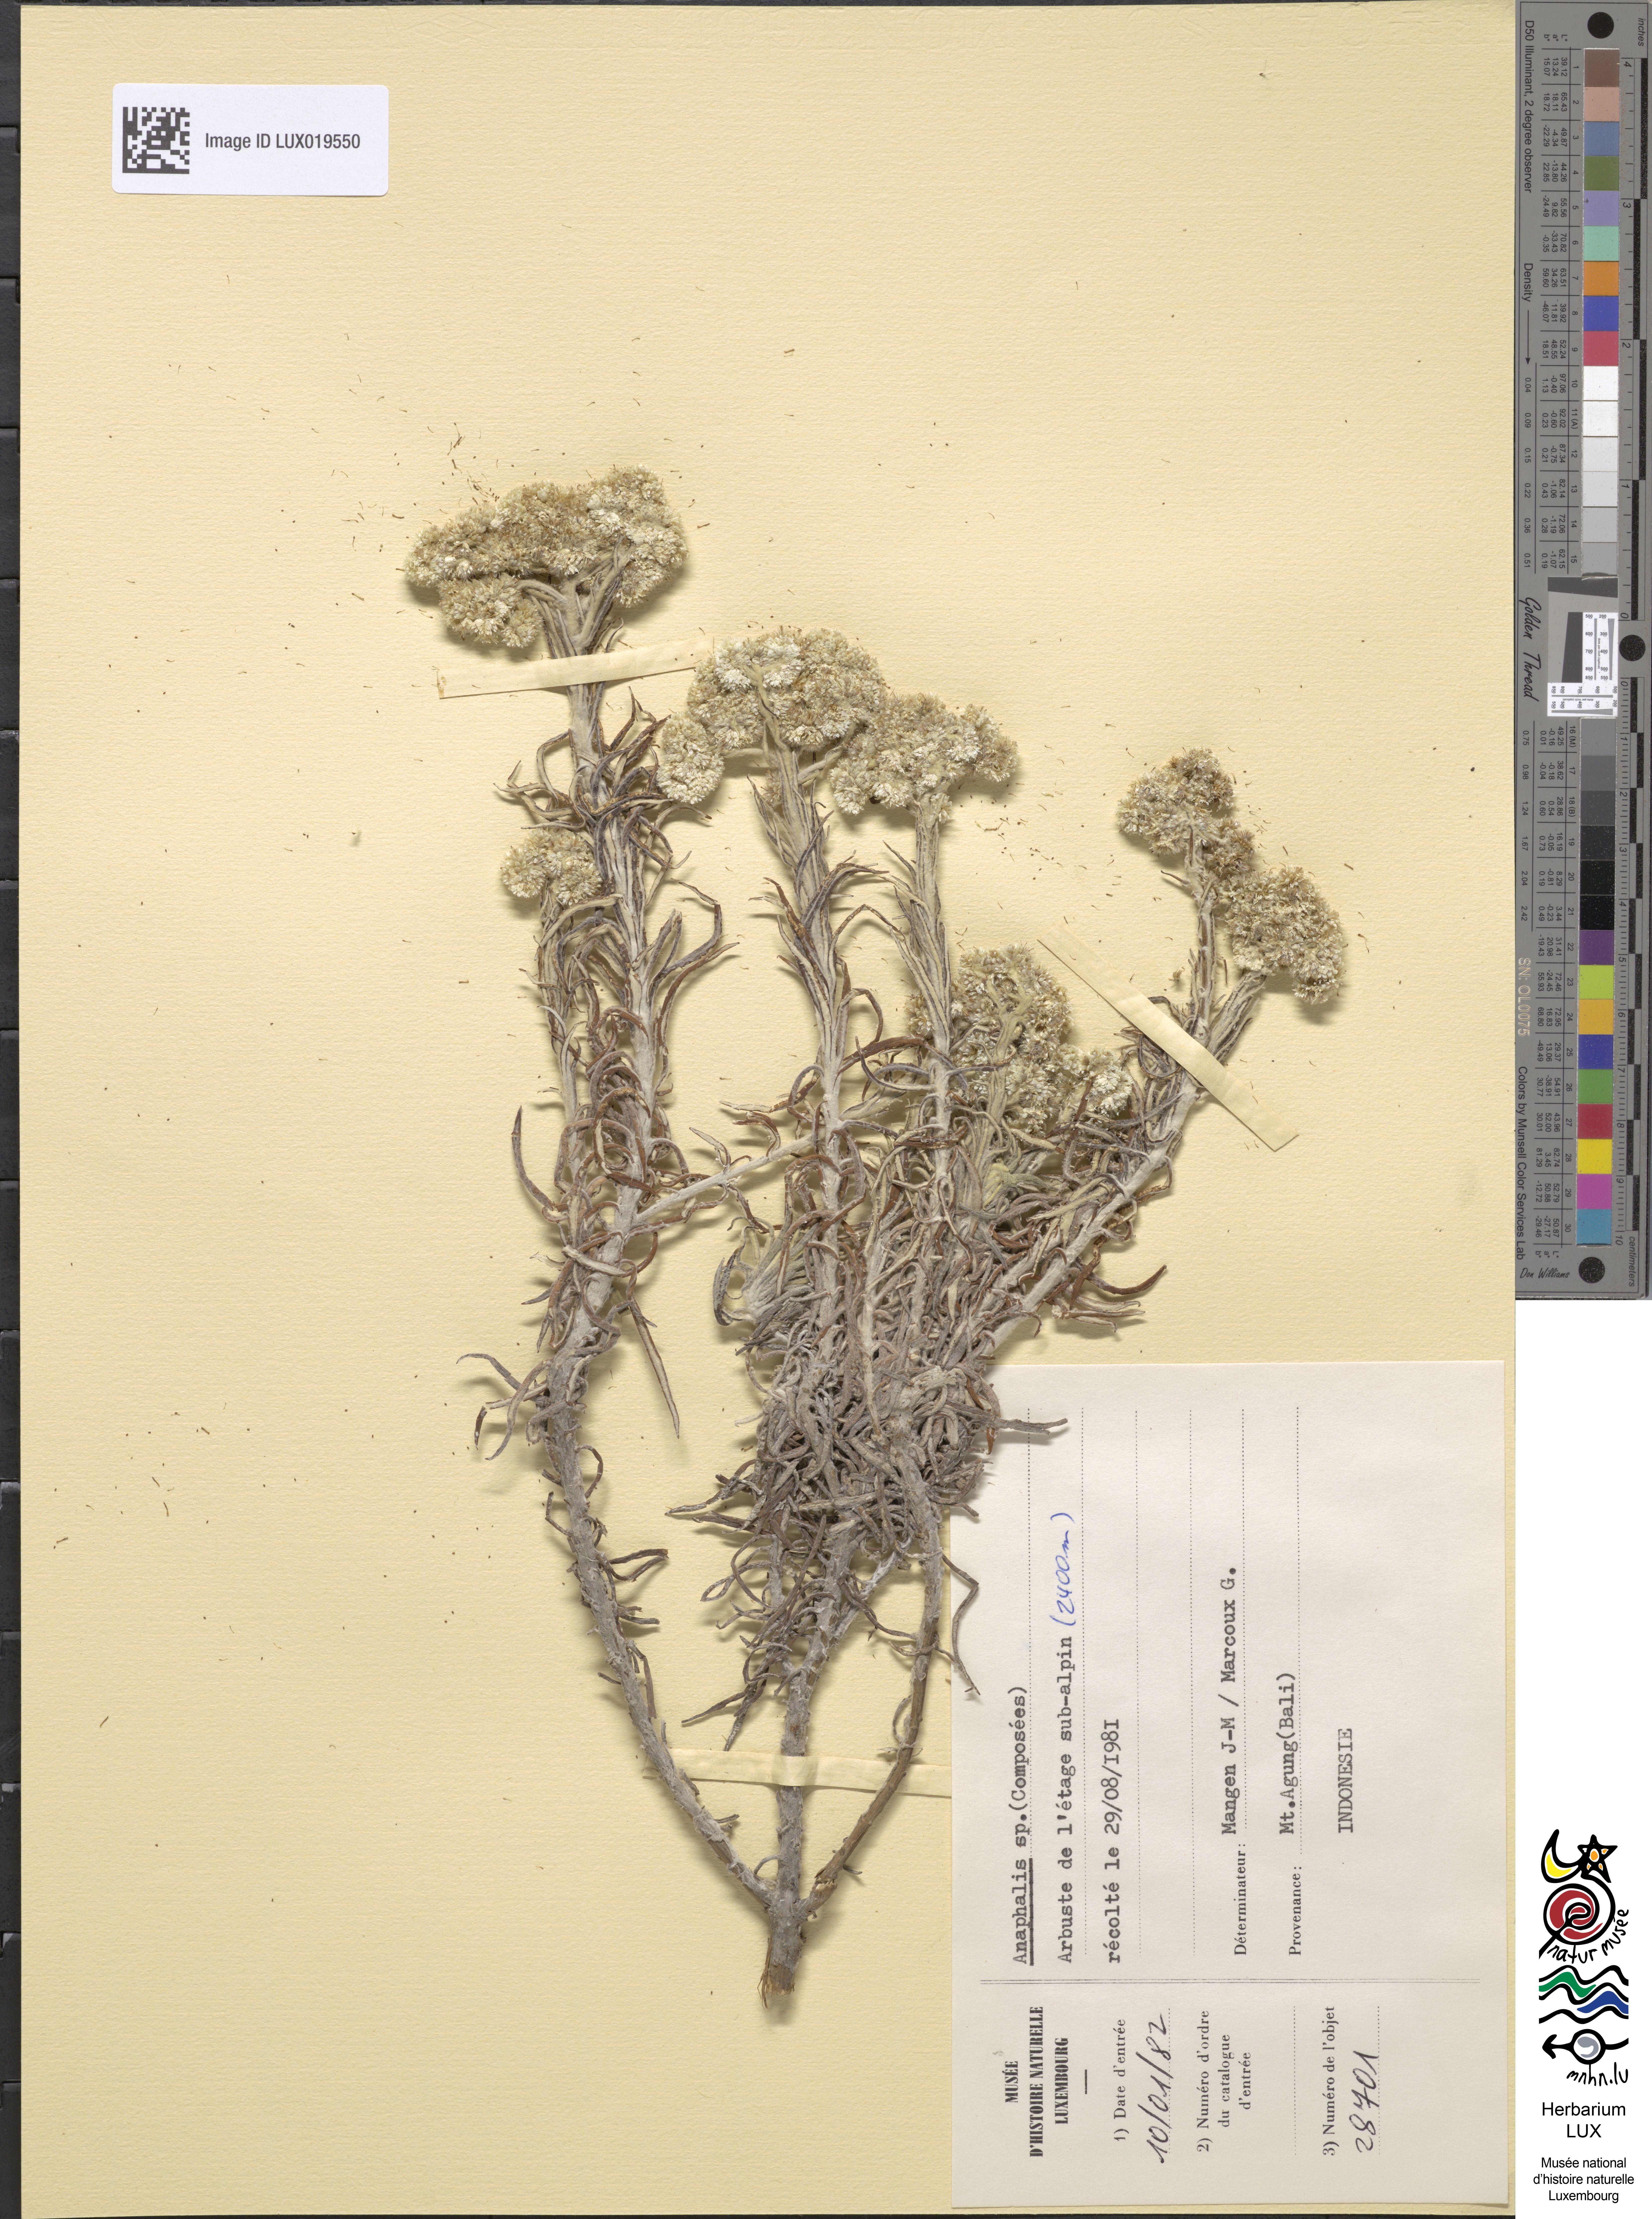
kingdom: Plantae
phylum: Tracheophyta
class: Magnoliopsida
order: Asterales
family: Asteraceae
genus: Anaphalis
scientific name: Anaphalis
